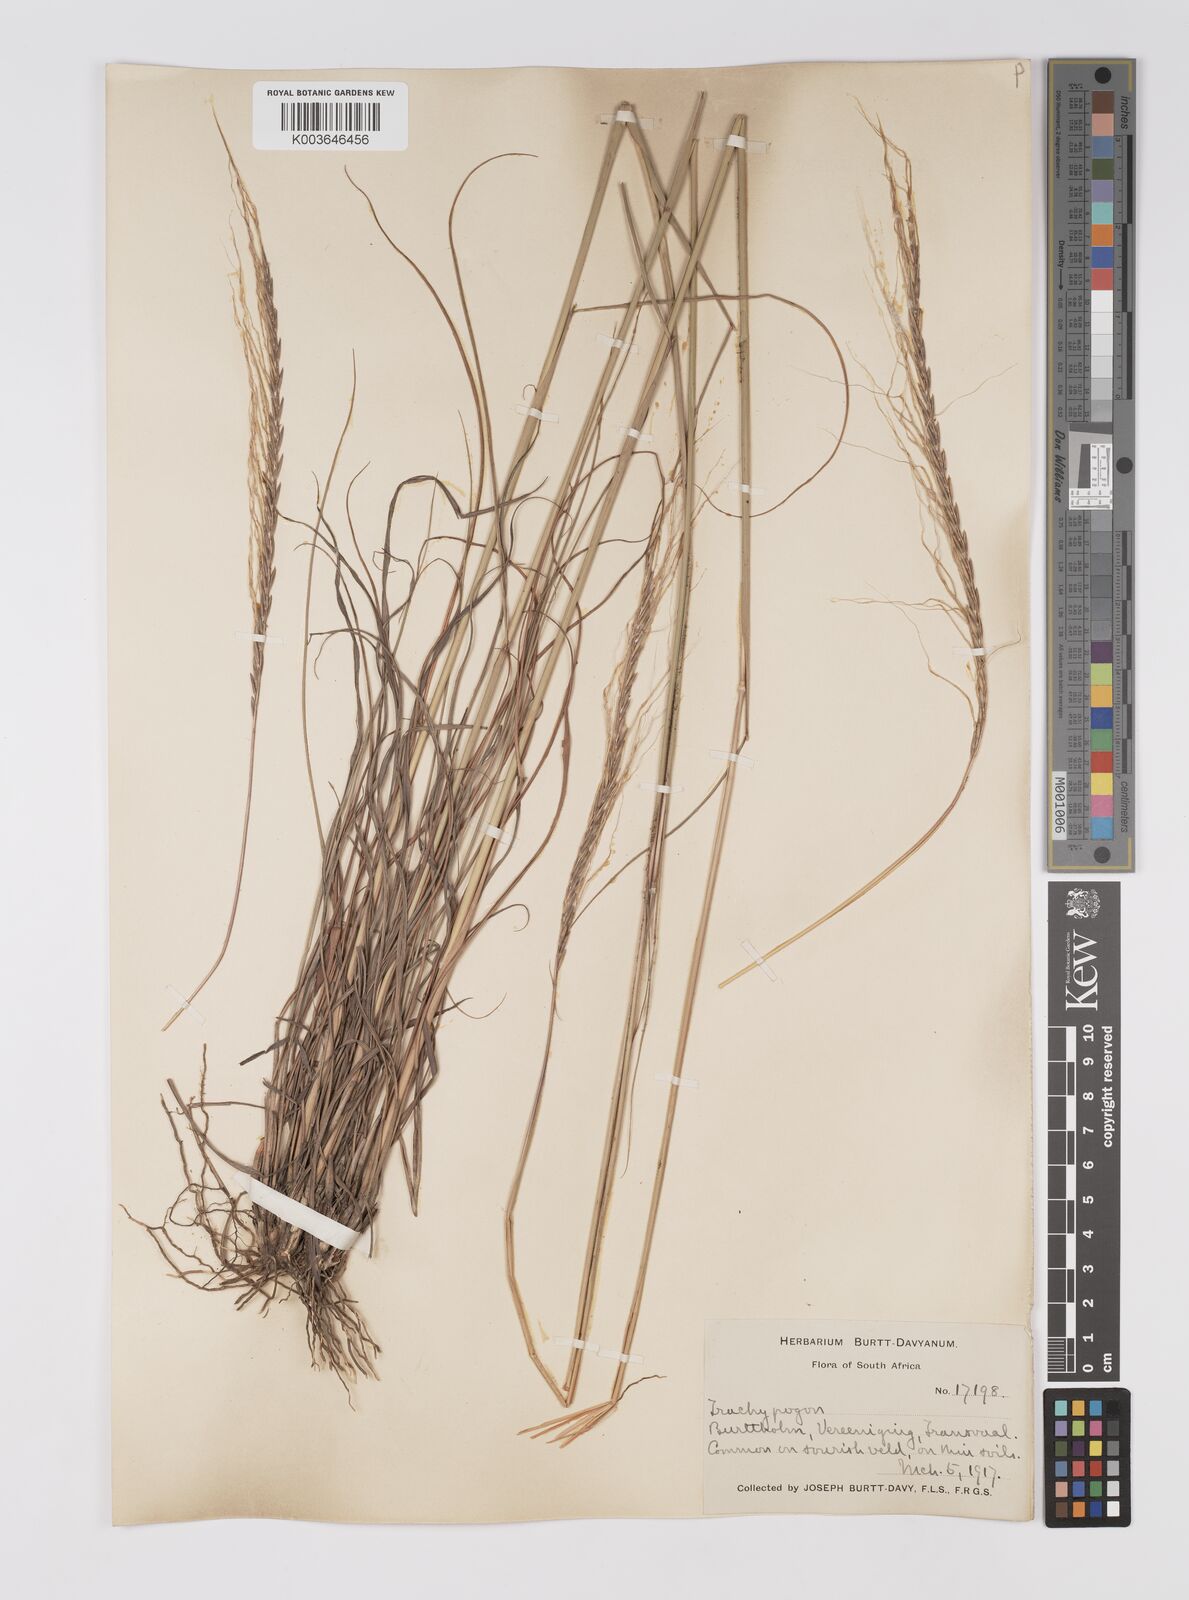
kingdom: Plantae
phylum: Tracheophyta
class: Liliopsida
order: Poales
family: Poaceae
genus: Trachypogon
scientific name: Trachypogon spicatus
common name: Crinkle-awn
